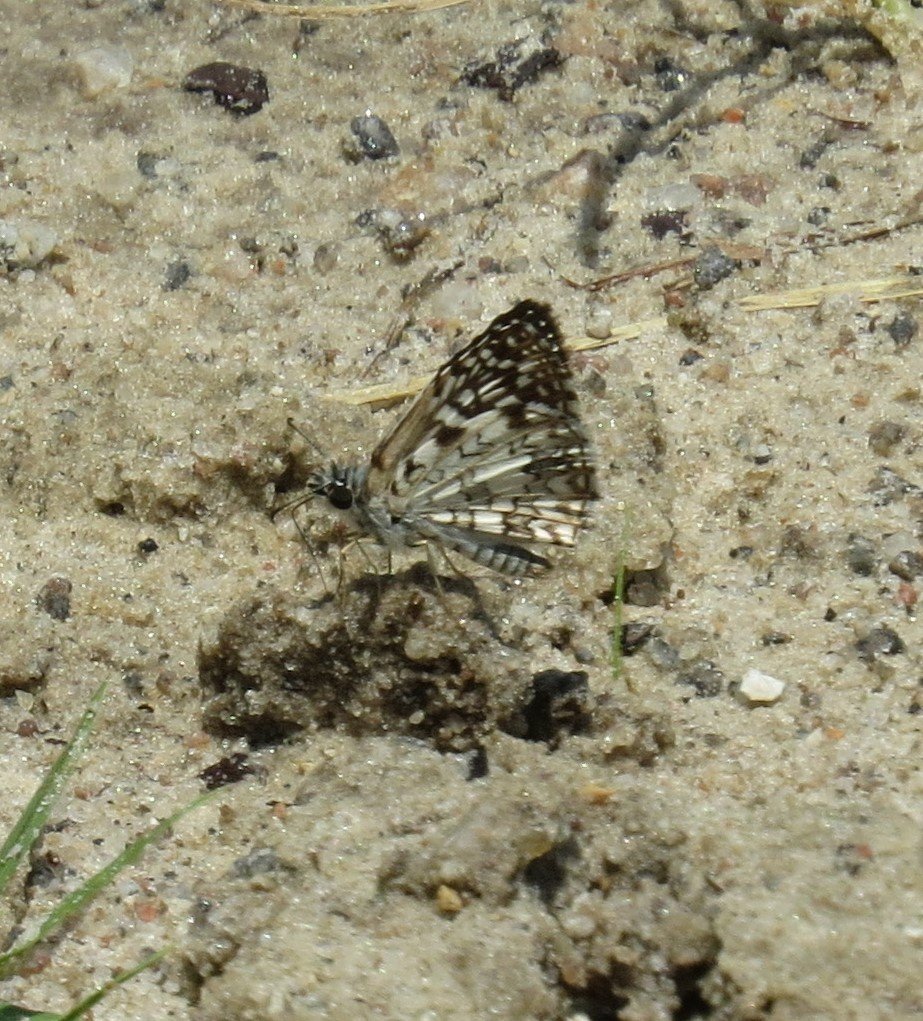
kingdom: Animalia
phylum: Arthropoda
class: Insecta
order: Lepidoptera
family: Hesperiidae
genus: Pyrgus
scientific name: Pyrgus oileus
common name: Tropical Checkered-Skipper
